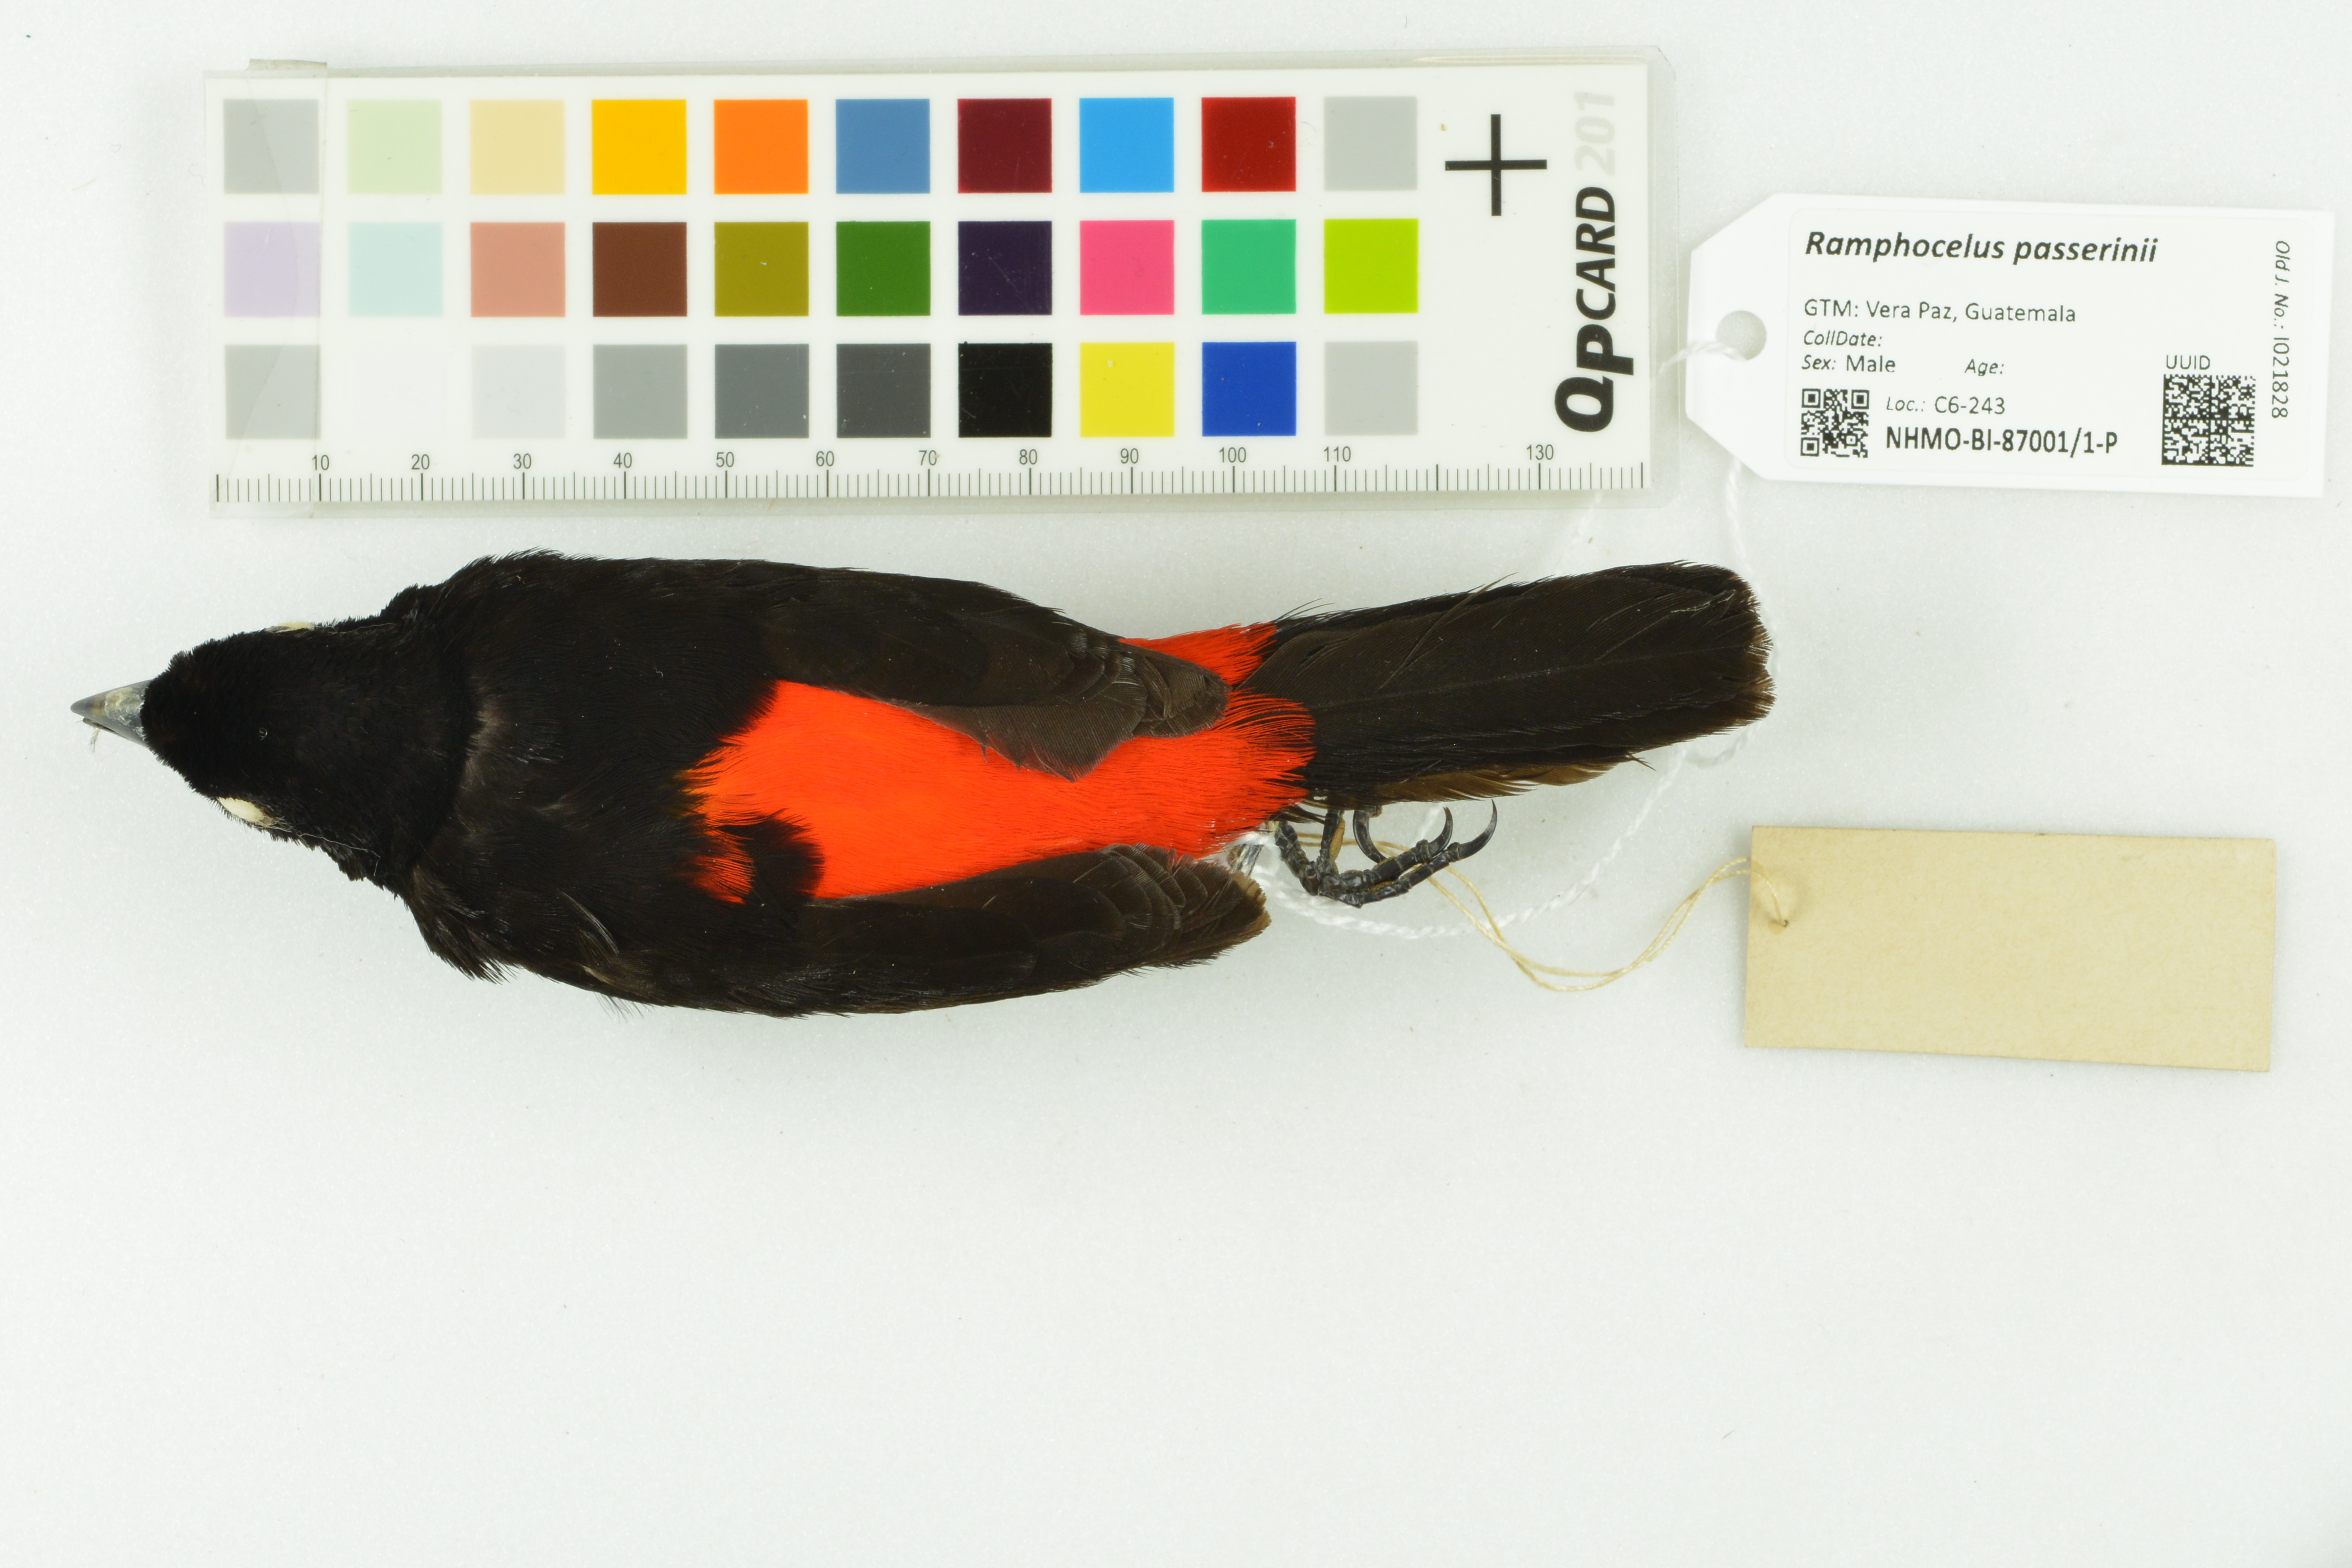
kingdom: Animalia
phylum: Chordata
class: Aves
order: Passeriformes
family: Thraupidae
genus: Ramphocelus
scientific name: Ramphocelus passerinii
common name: Passerini's tanager
